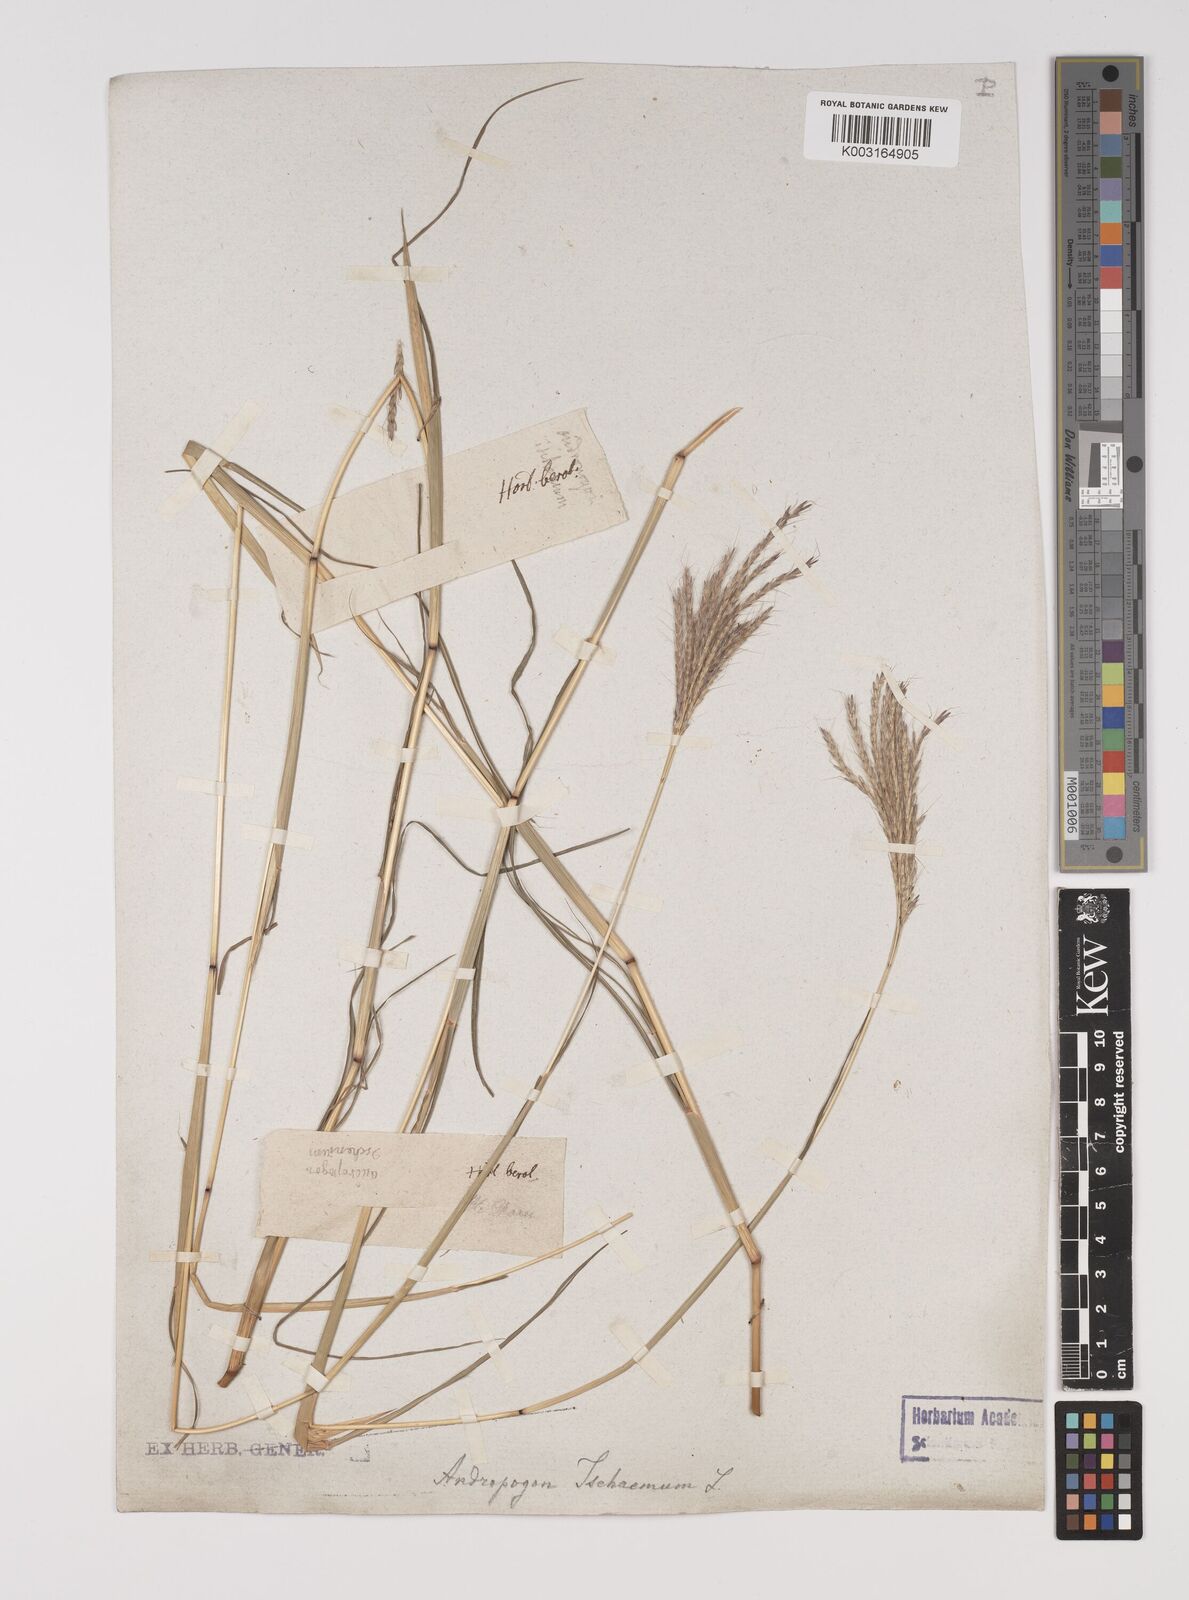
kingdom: Plantae
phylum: Tracheophyta
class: Liliopsida
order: Poales
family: Poaceae
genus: Bothriochloa
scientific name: Bothriochloa ischaemum
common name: Yellow bluestem
